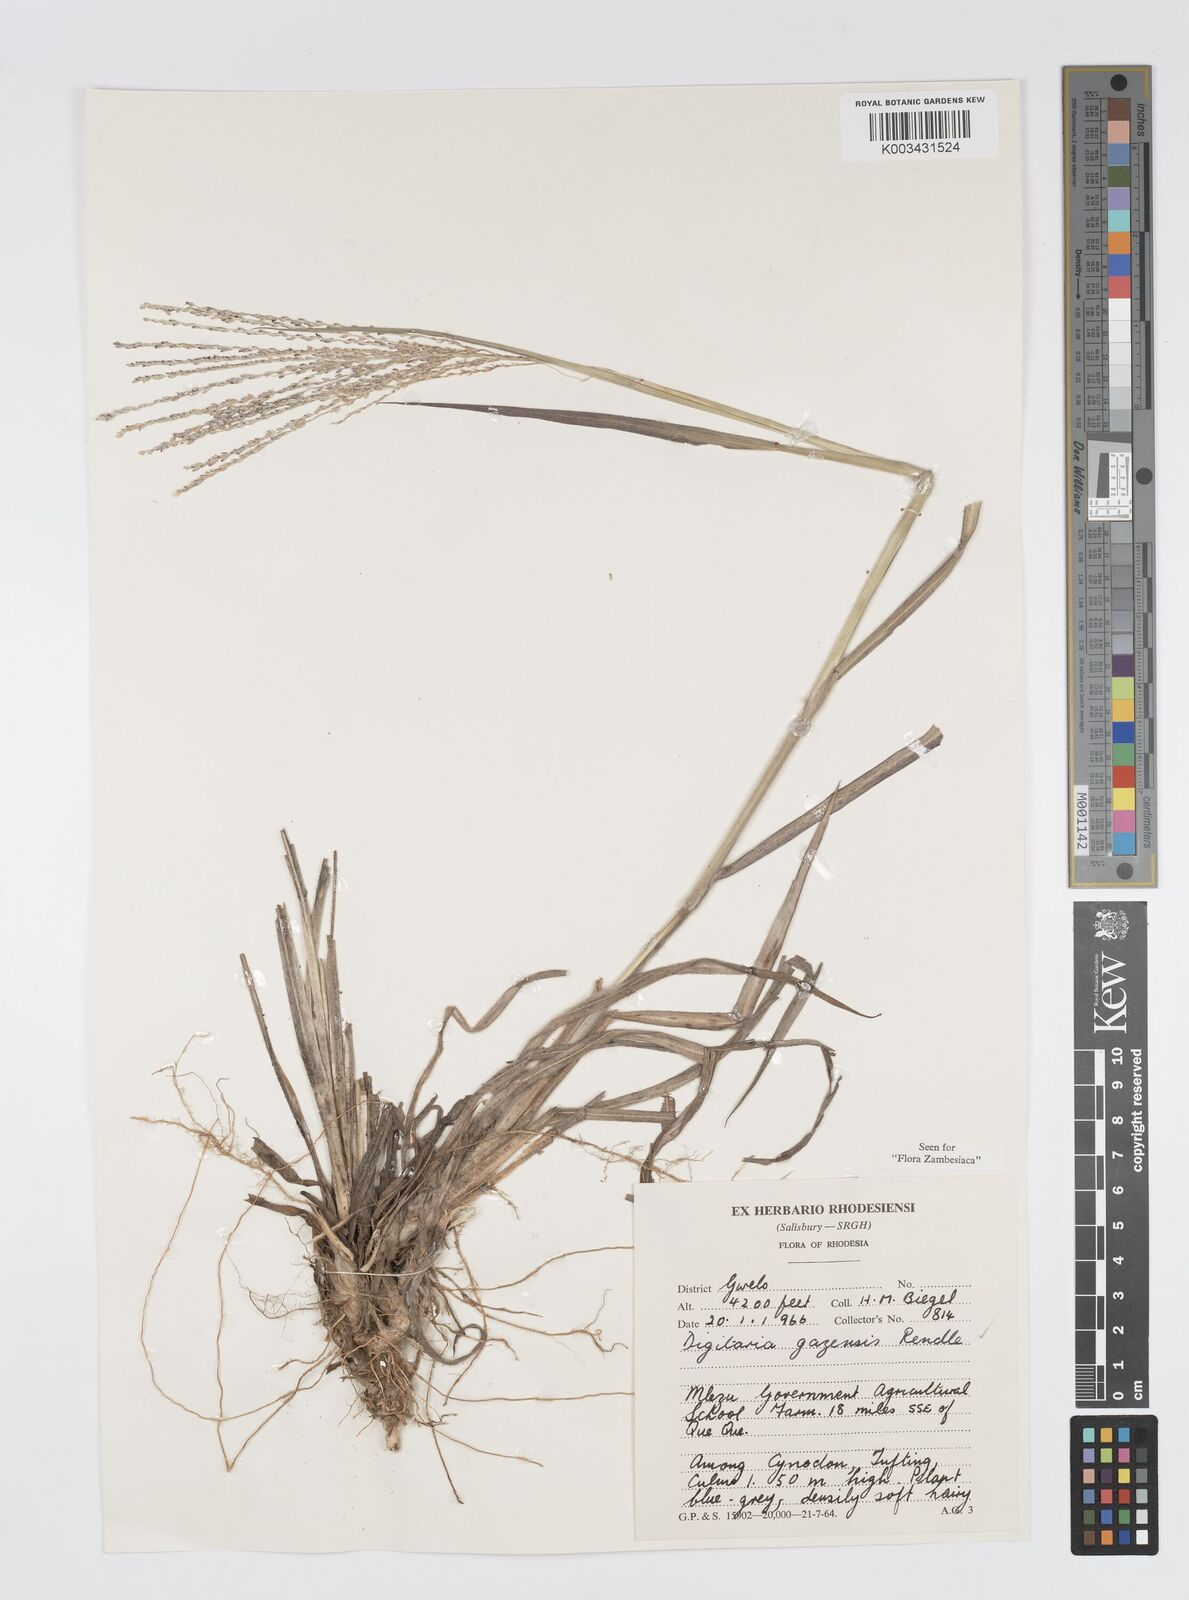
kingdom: Plantae
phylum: Tracheophyta
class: Liliopsida
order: Poales
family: Poaceae
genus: Digitaria
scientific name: Digitaria gazensis
